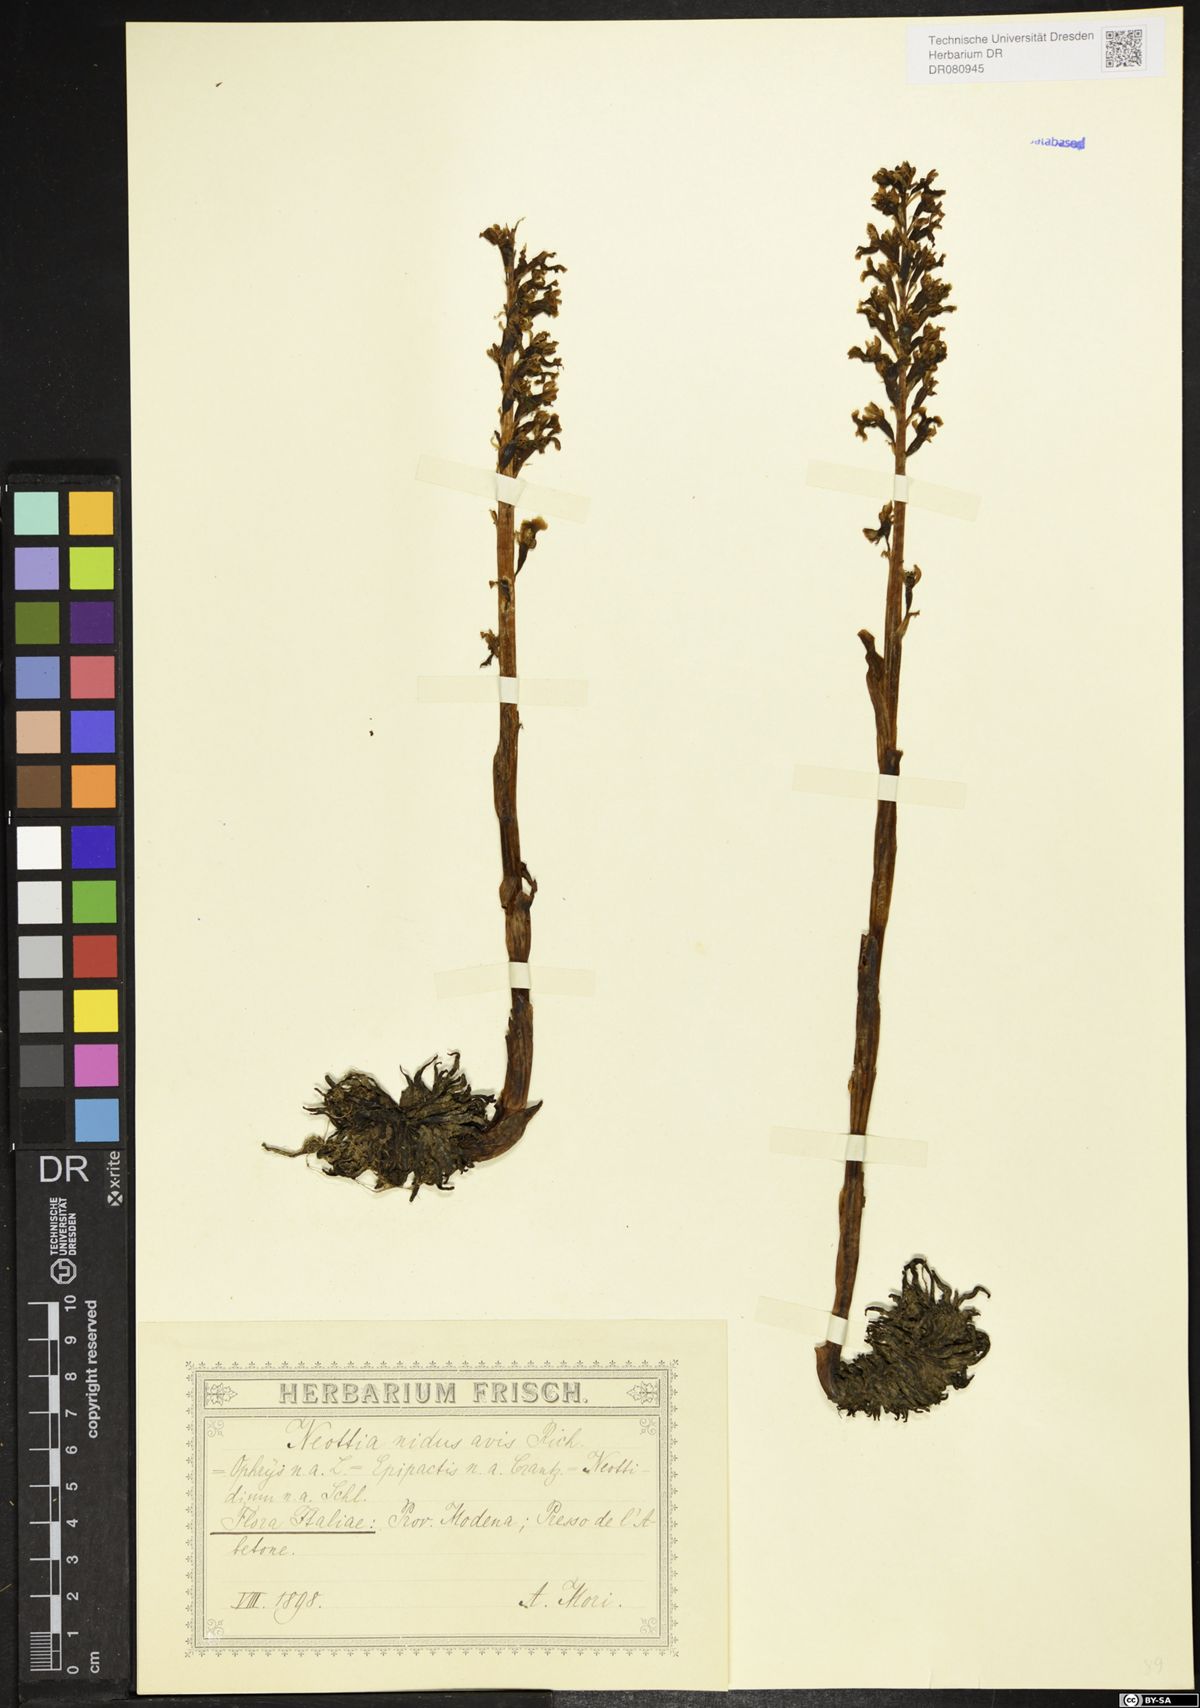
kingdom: Plantae
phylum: Tracheophyta
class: Liliopsida
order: Asparagales
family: Orchidaceae
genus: Neottia
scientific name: Neottia nidus-avis
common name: Bird's-nest orchid
